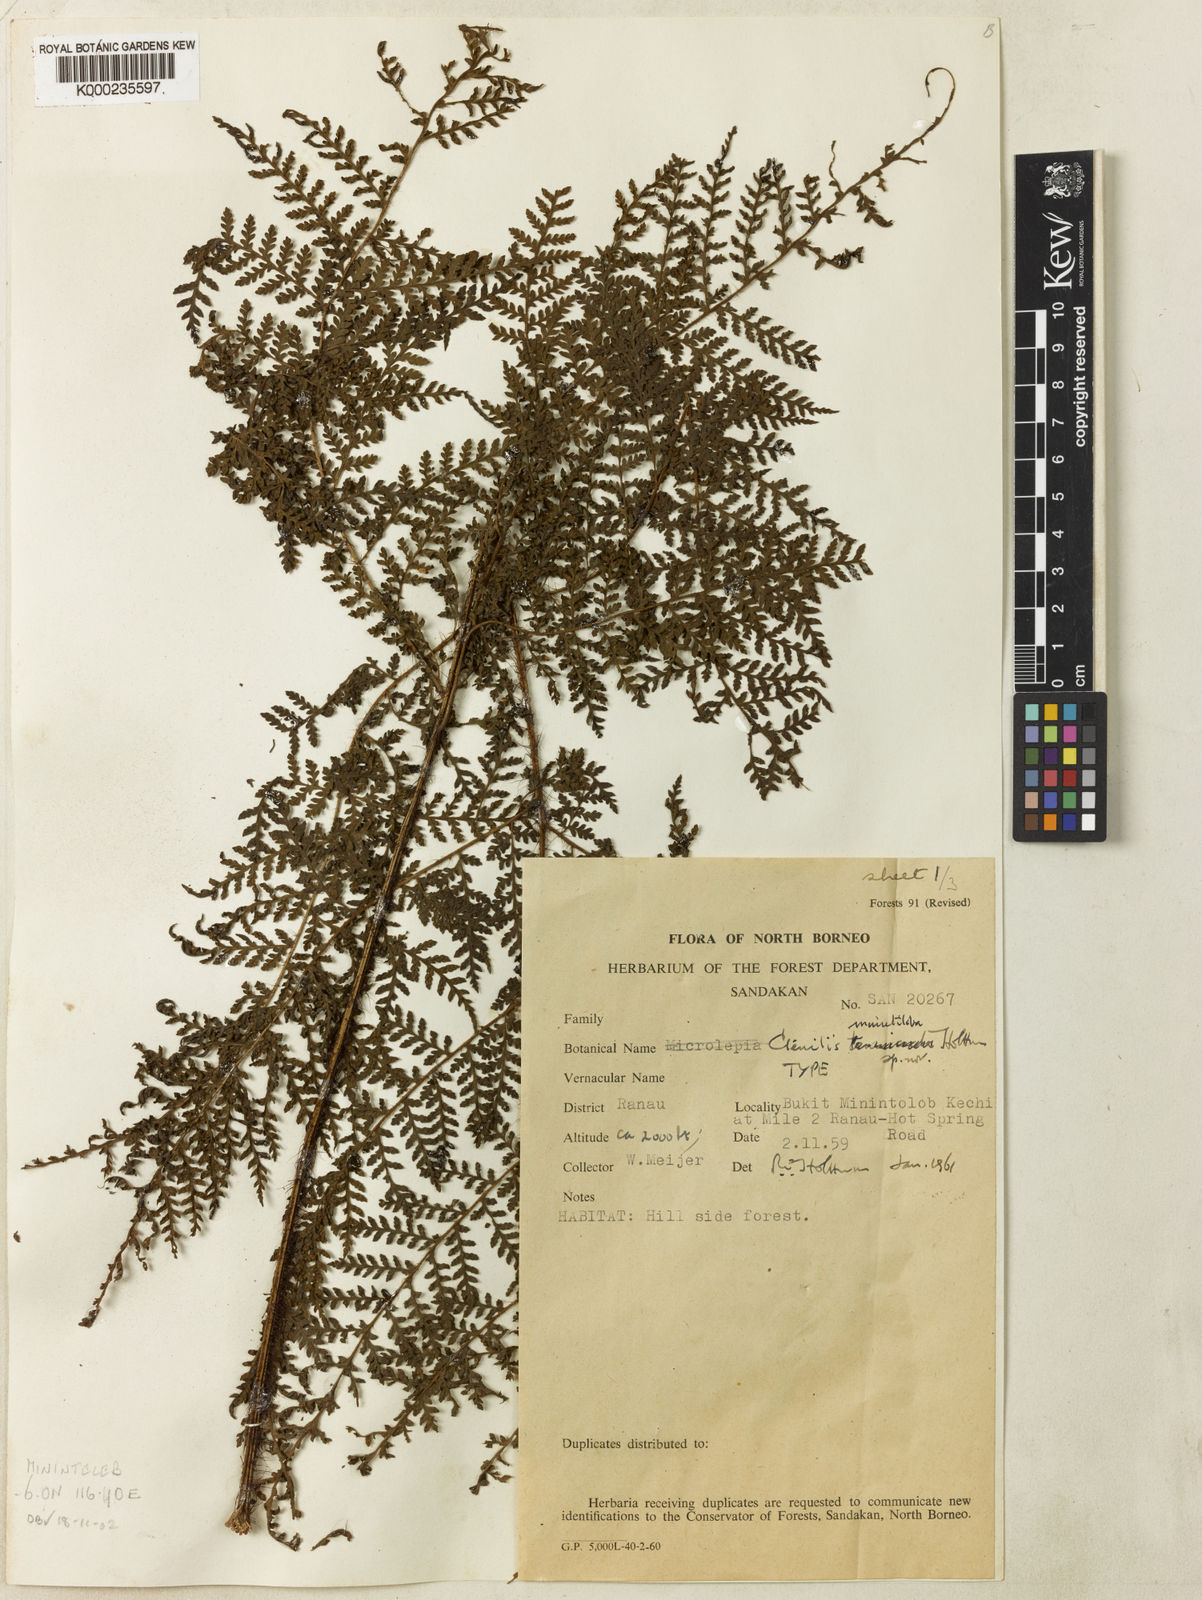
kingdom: Plantae
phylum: Tracheophyta
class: Polypodiopsida
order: Polypodiales
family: Dryopteridaceae
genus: Ctenitis
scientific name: Ctenitis minutiloba
